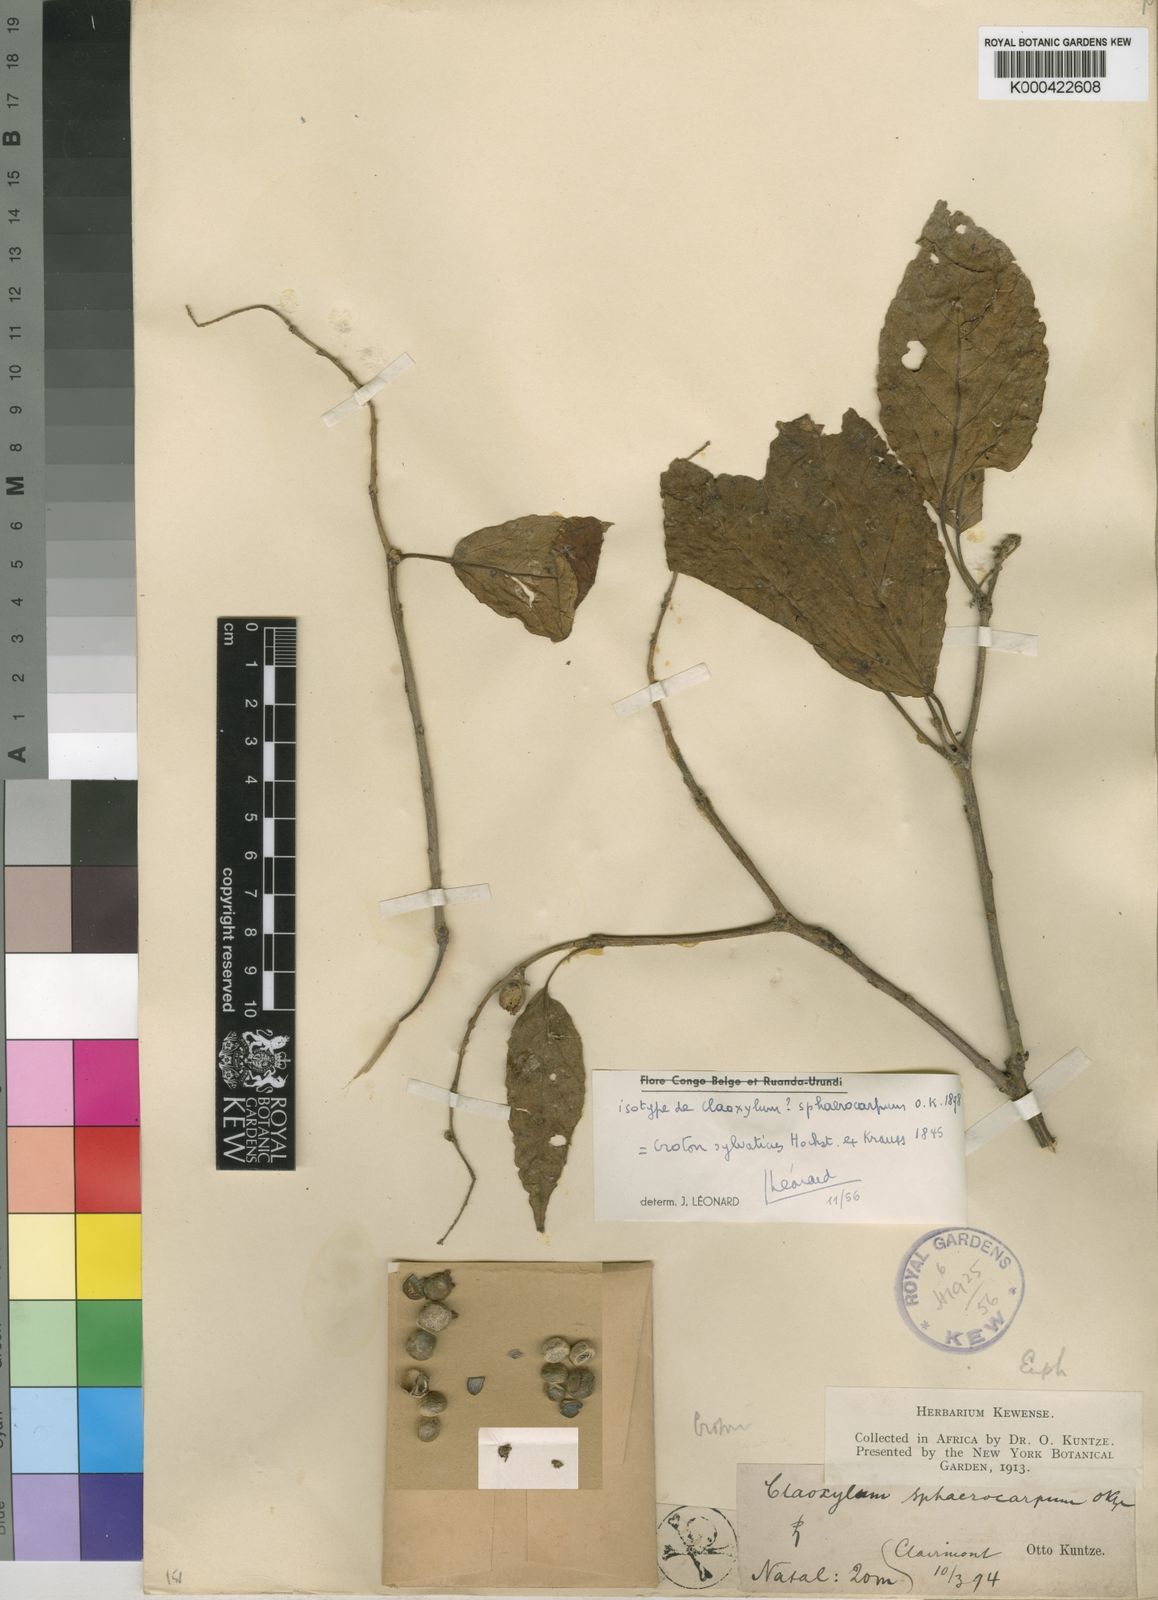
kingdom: Plantae
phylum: Tracheophyta
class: Magnoliopsida
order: Malpighiales
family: Euphorbiaceae
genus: Croton
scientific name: Croton sylvaticus
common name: Forest croton
